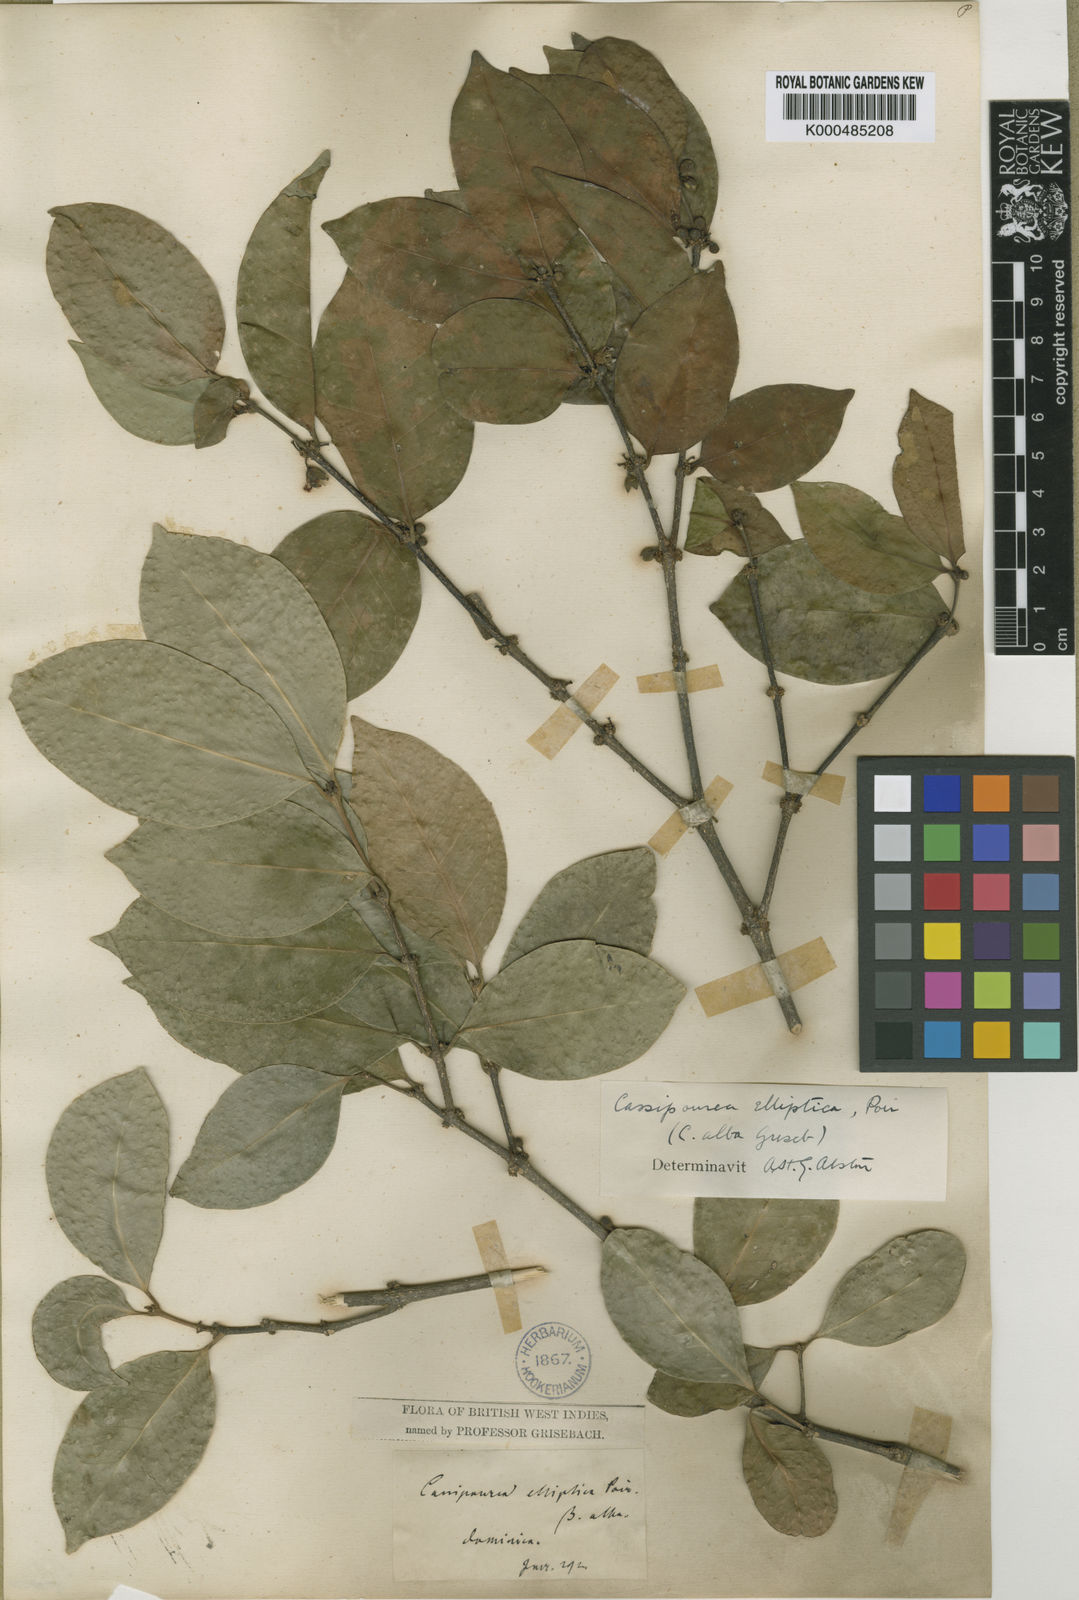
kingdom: Plantae
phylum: Tracheophyta
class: Magnoliopsida
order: Malpighiales
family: Rhizophoraceae
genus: Cassipourea
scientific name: Cassipourea elliptica
